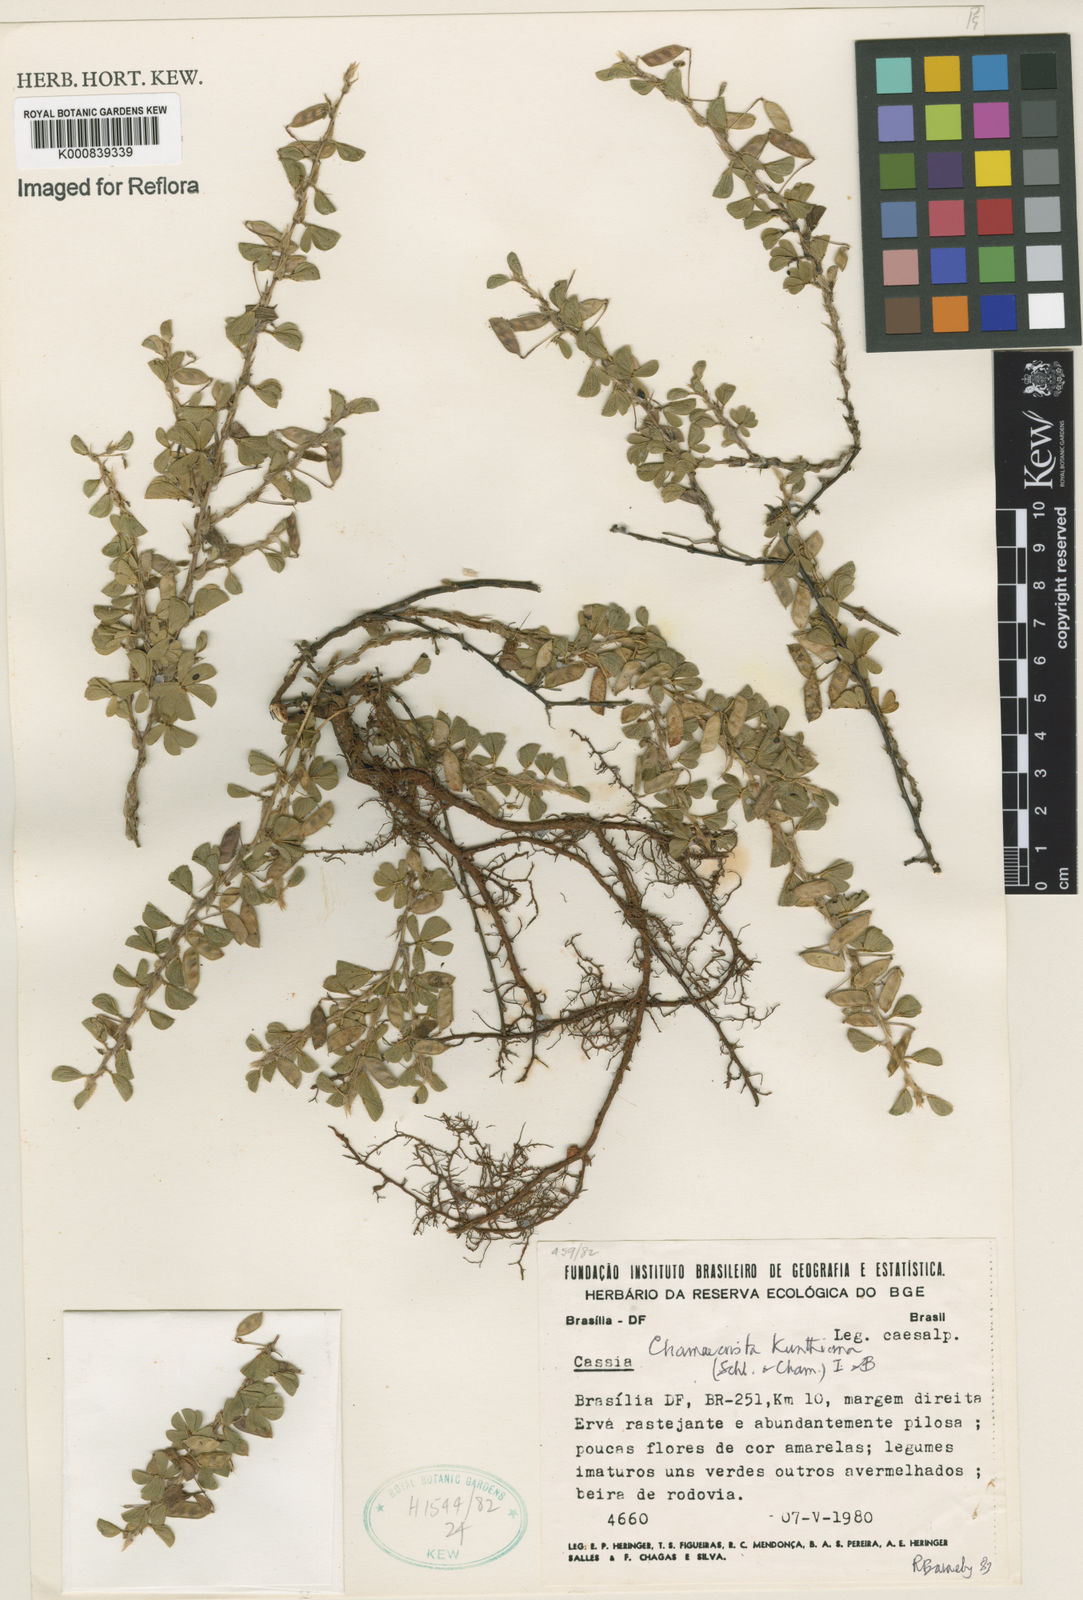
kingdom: Plantae
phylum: Tracheophyta
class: Magnoliopsida
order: Fabales
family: Fabaceae
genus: Chamaecrista
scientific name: Chamaecrista kunthiana
